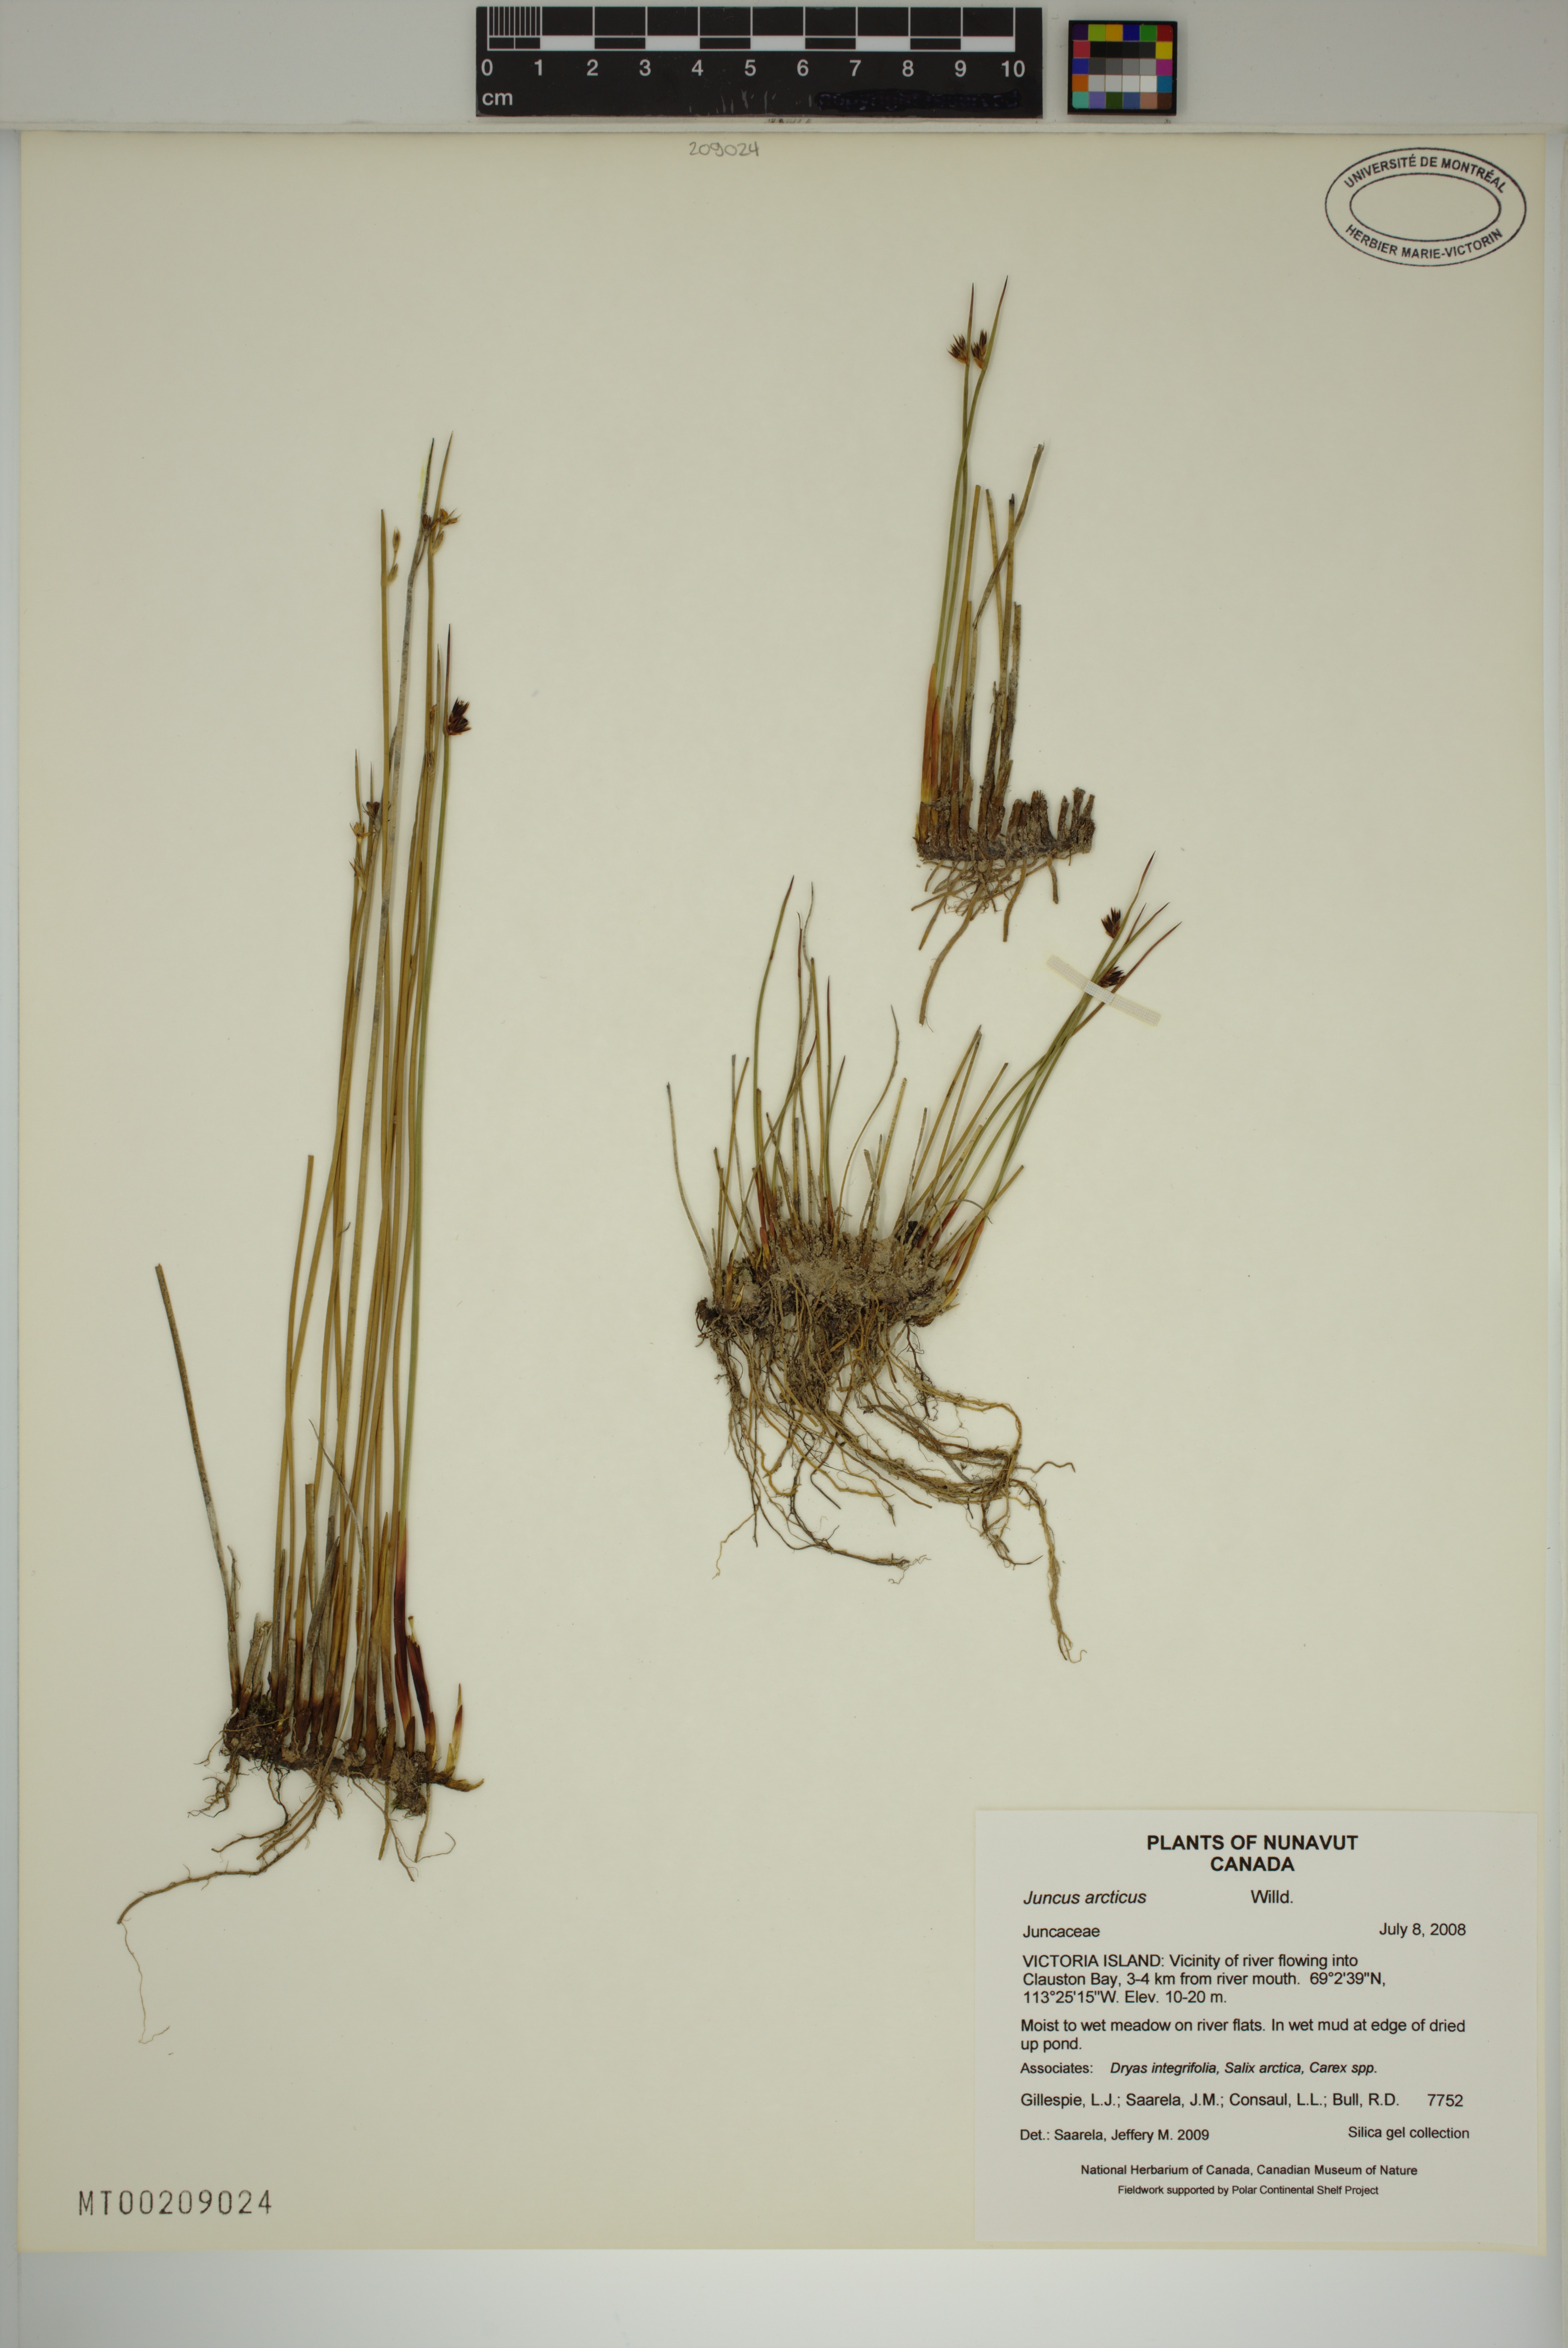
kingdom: Plantae
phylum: Tracheophyta
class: Liliopsida
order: Poales
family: Juncaceae
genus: Juncus
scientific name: Juncus arcticus
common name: Arctic rush
